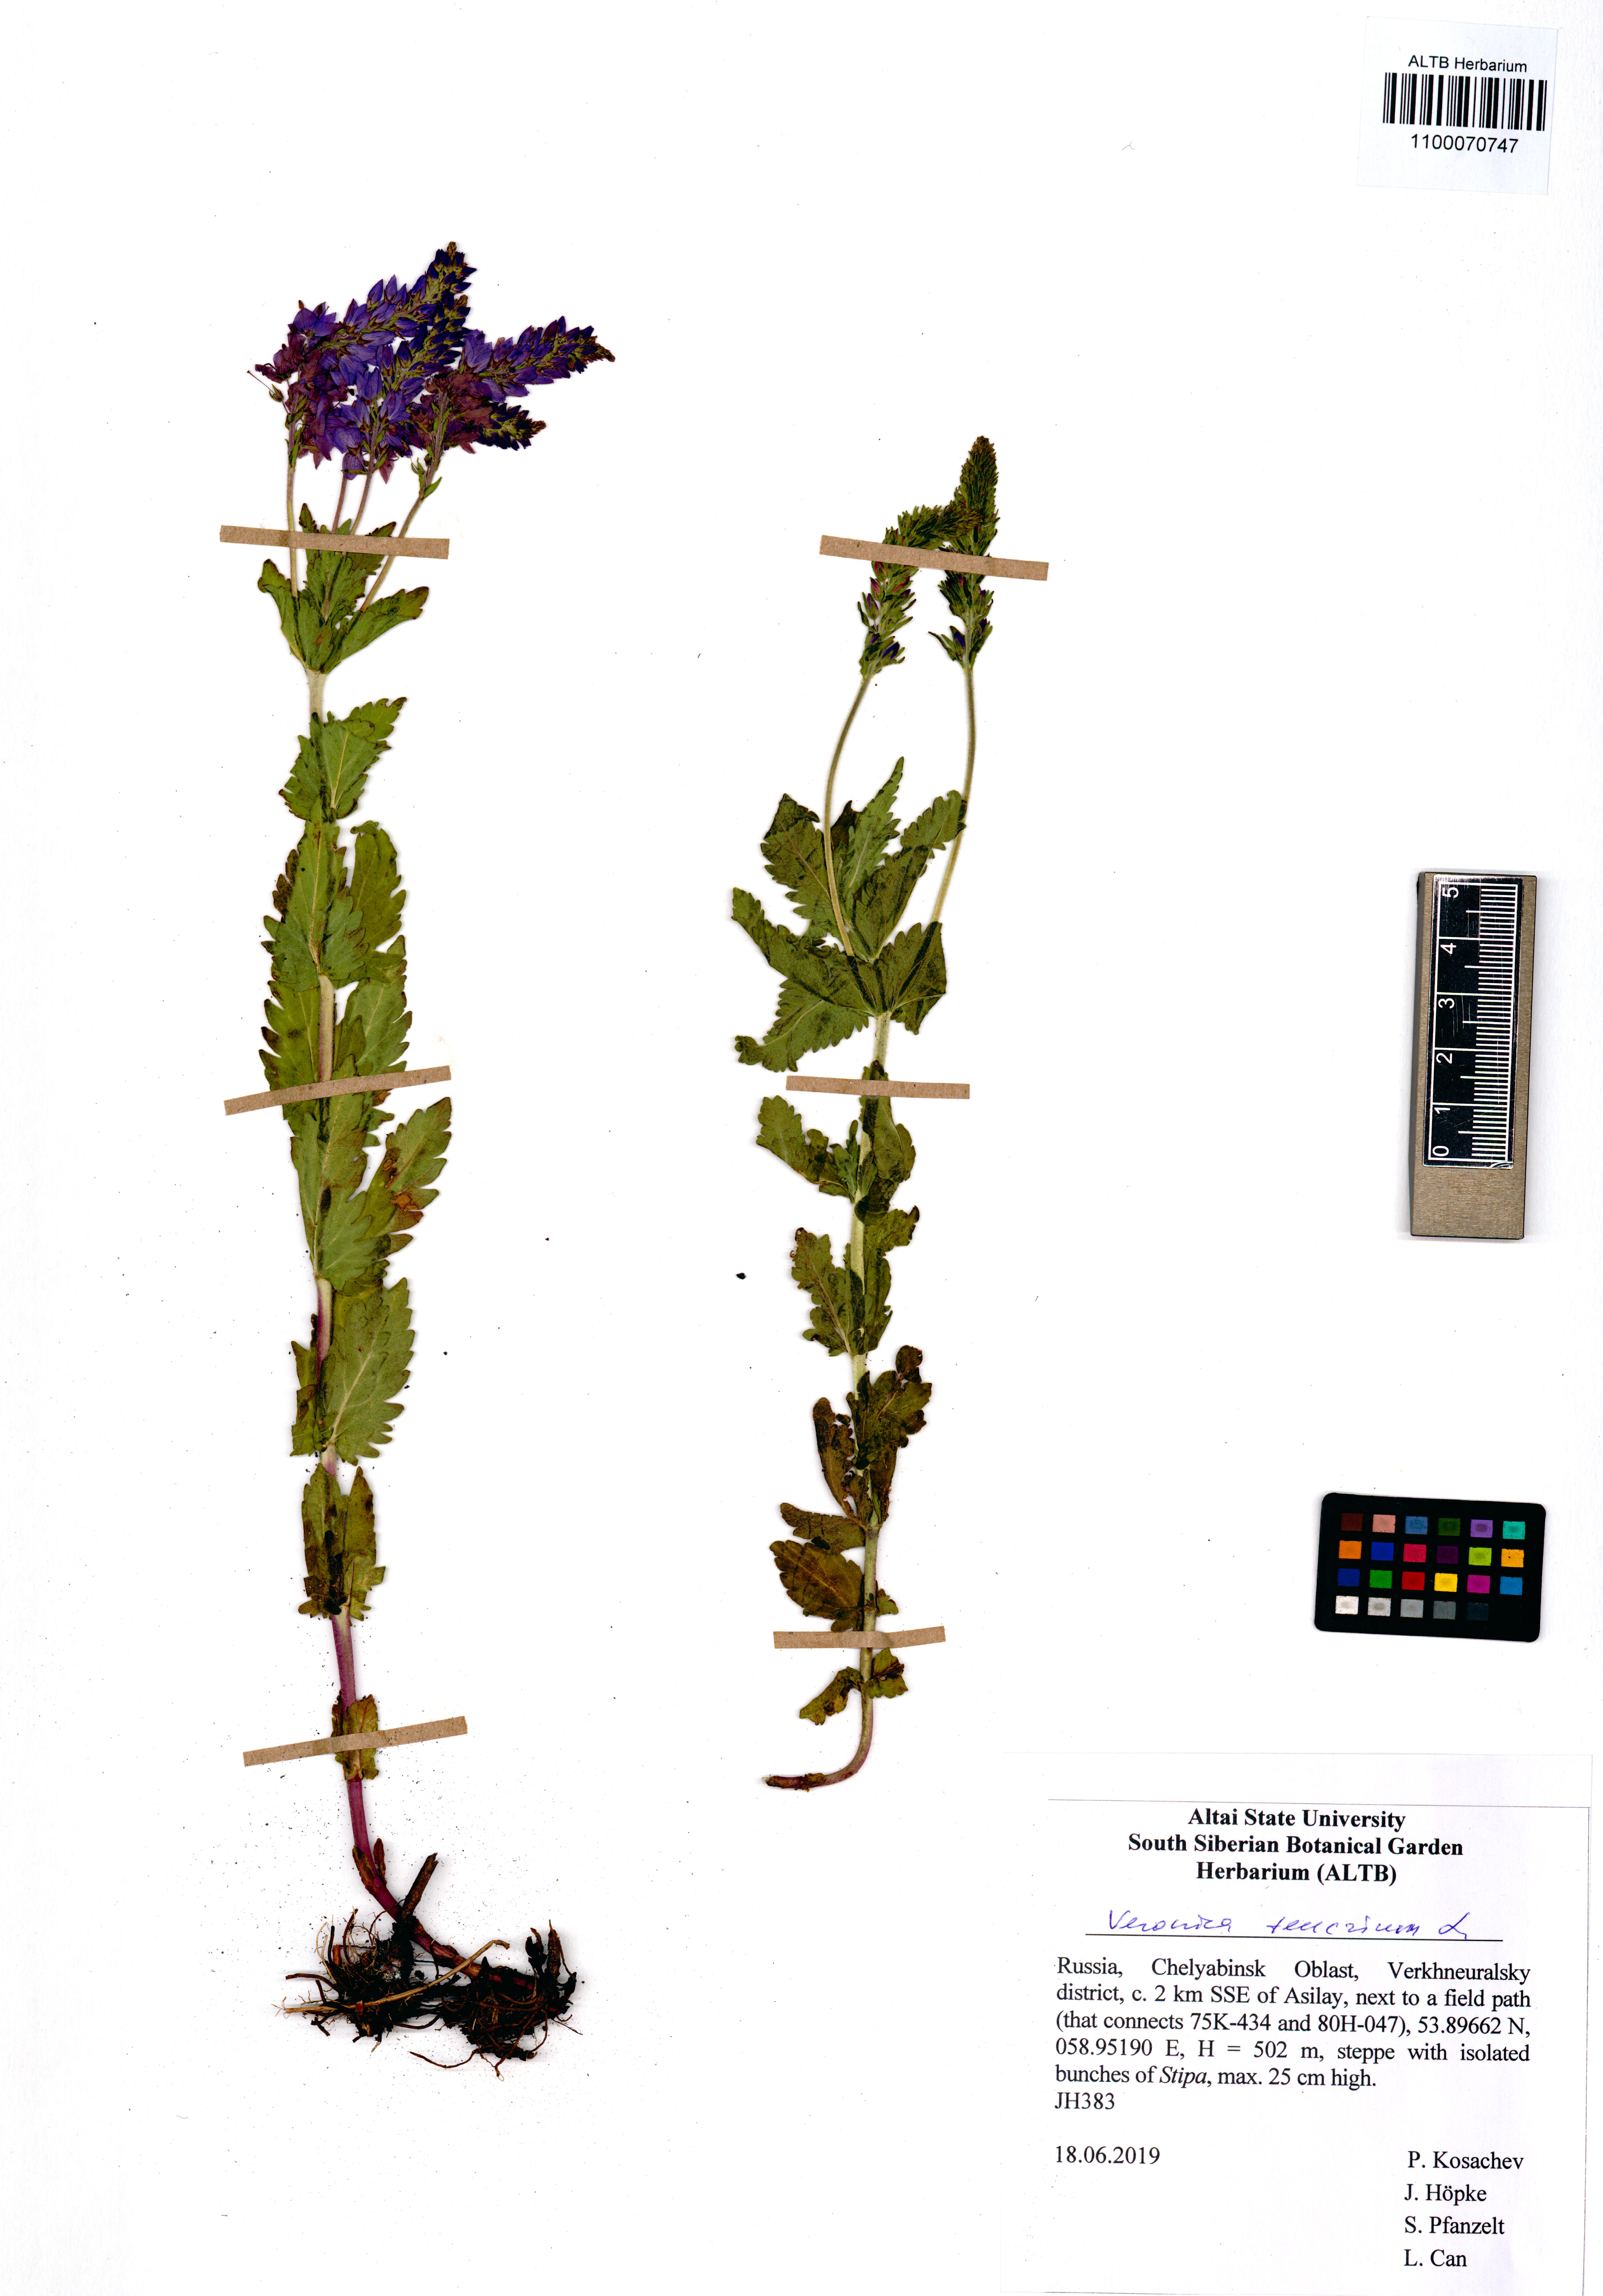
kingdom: Plantae
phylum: Tracheophyta
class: Magnoliopsida
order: Lamiales
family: Plantaginaceae
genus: Veronica
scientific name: Veronica teucrium
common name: Large speedwell
